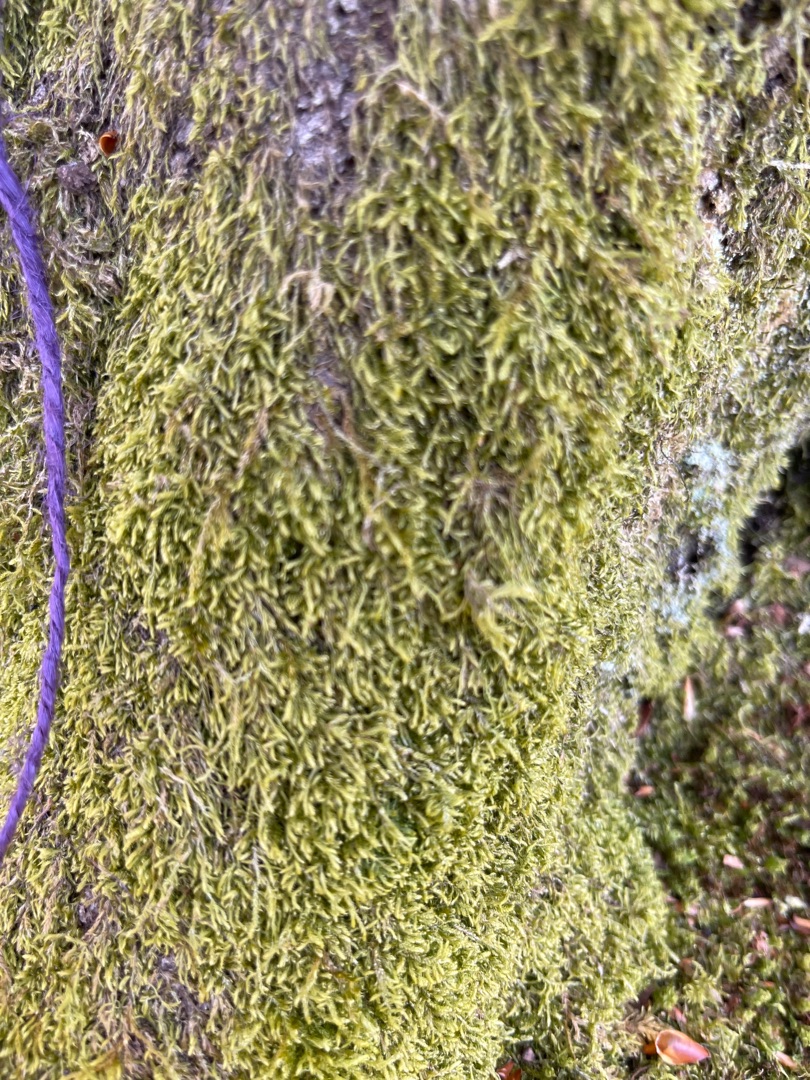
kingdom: Plantae
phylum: Bryophyta
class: Bryopsida
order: Hypnales
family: Hypnaceae
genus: Hypnum
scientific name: Hypnum
